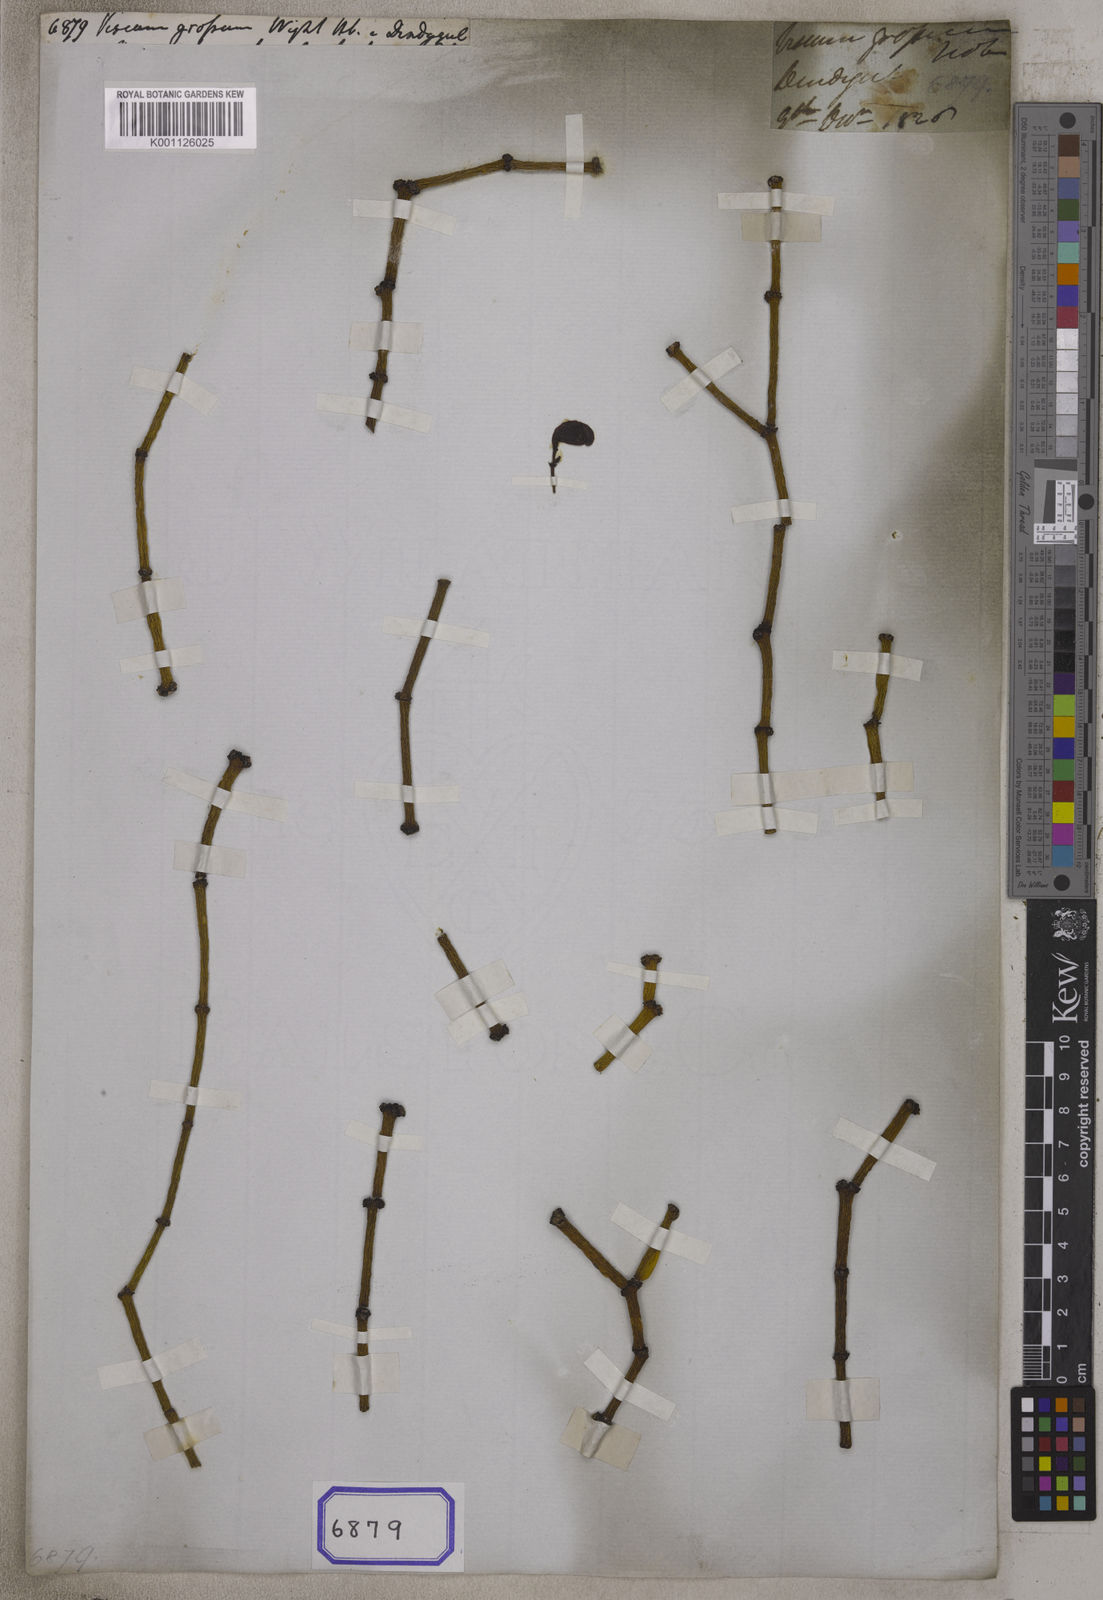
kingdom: Plantae
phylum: Tracheophyta
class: Magnoliopsida
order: Santalales
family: Viscaceae
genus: Viscum
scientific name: Viscum capitellatum
